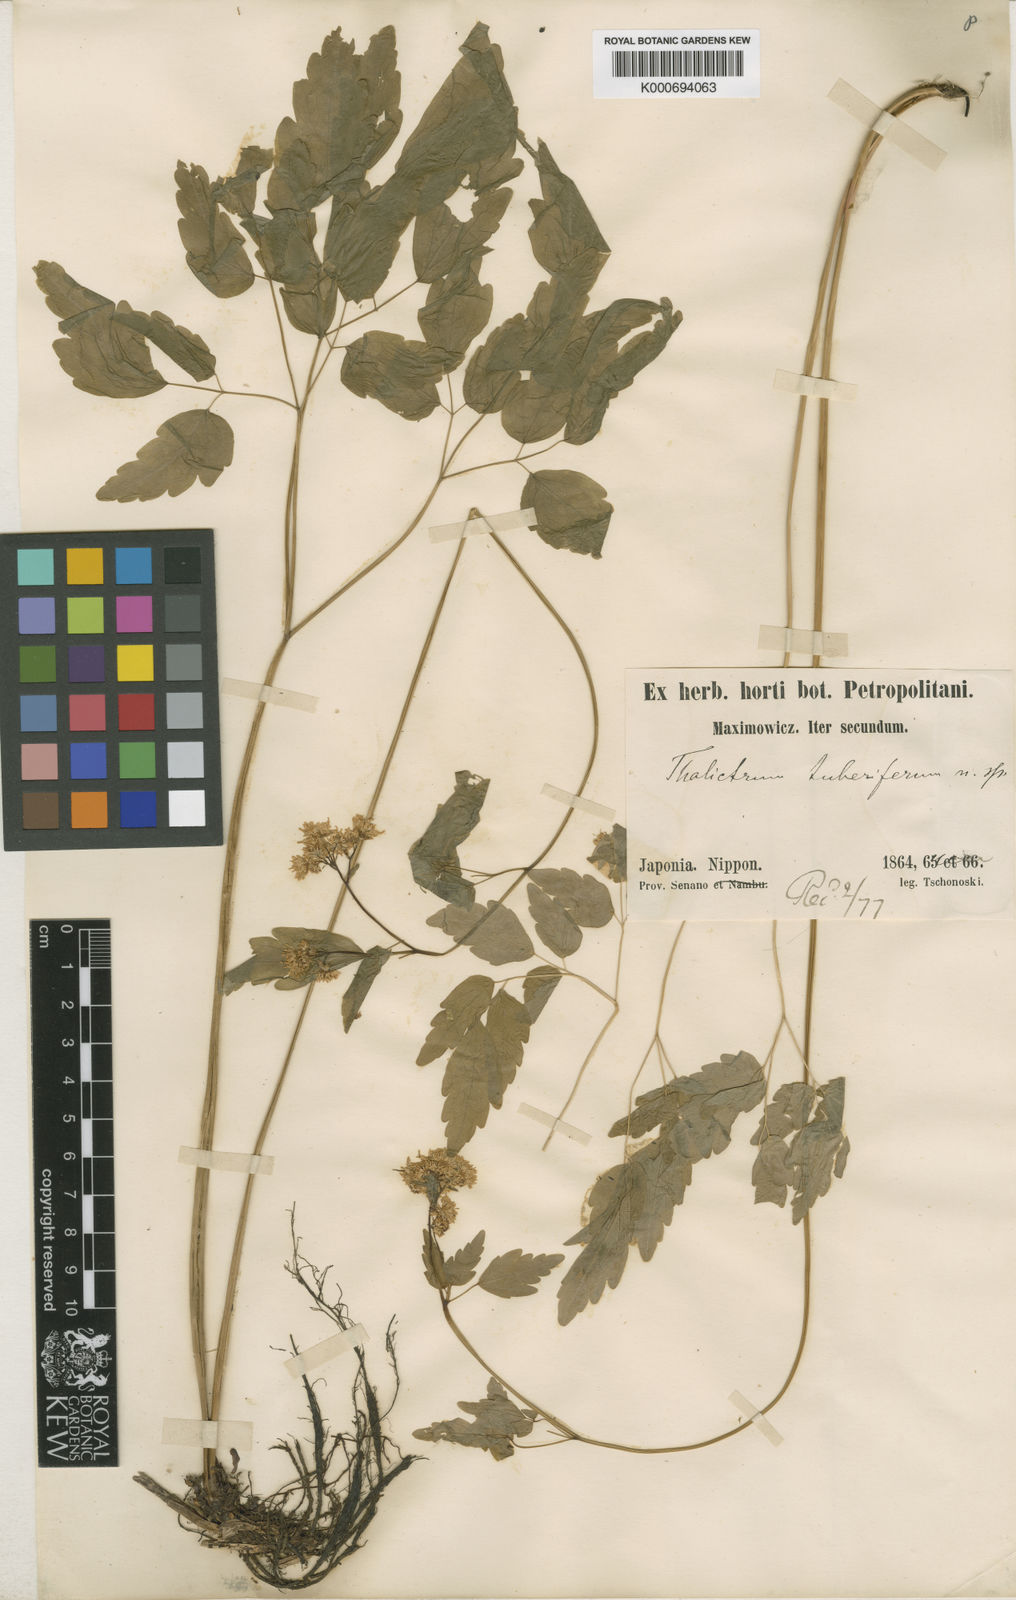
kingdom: Plantae
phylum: Tracheophyta
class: Magnoliopsida
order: Ranunculales
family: Ranunculaceae
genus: Thalictrum
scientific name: Thalictrum tuberiferum
